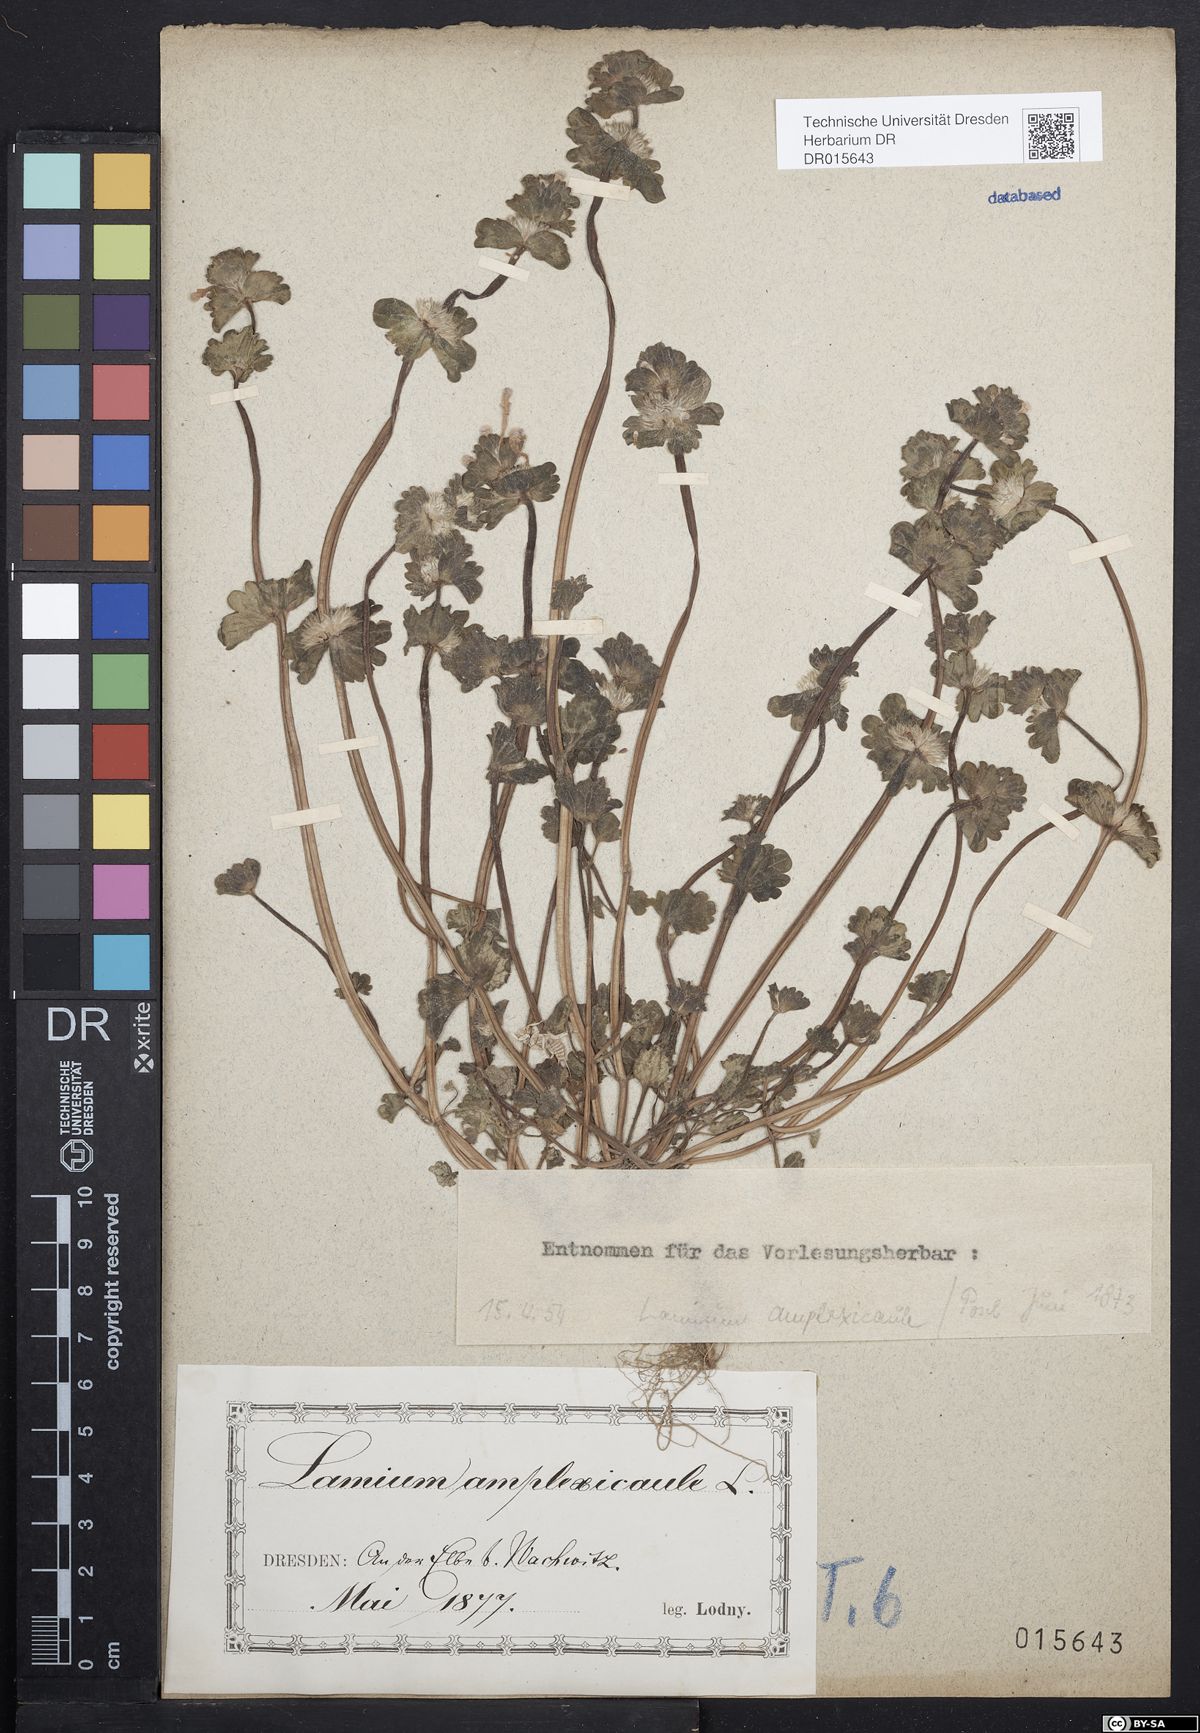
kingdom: Plantae
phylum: Tracheophyta
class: Magnoliopsida
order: Lamiales
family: Lamiaceae
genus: Lamium
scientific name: Lamium amplexicaule
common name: Henbit dead-nettle
